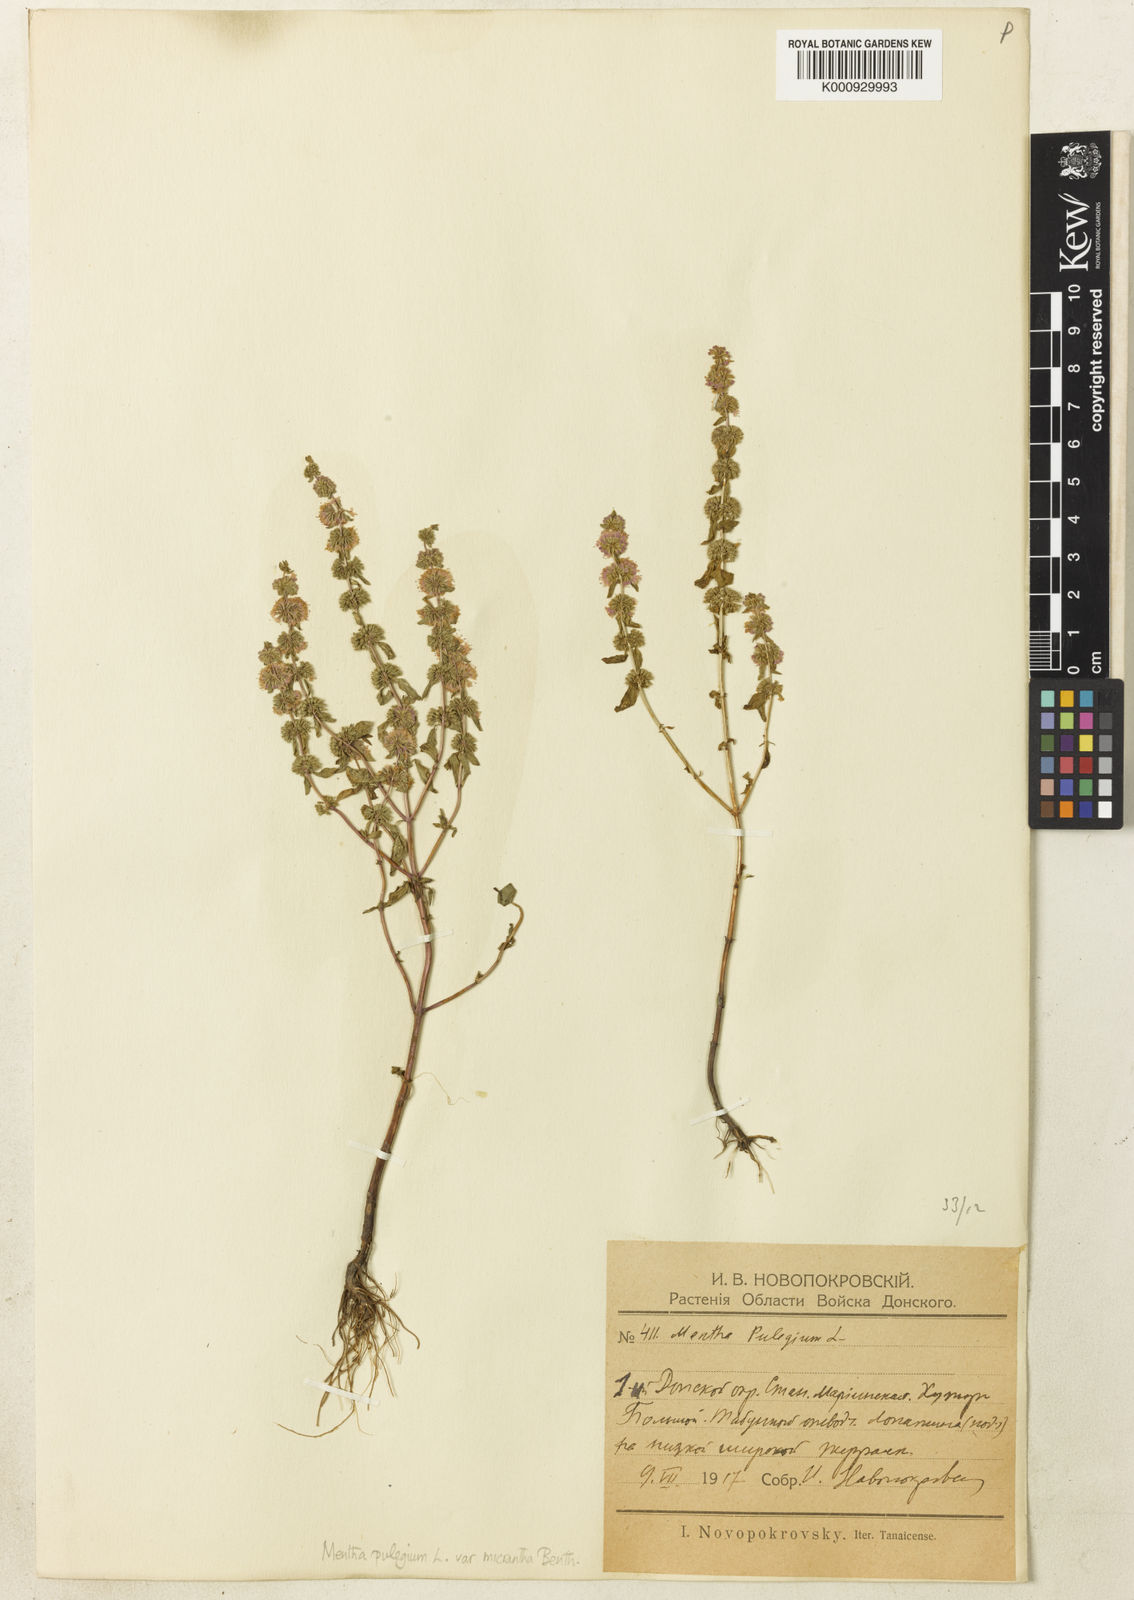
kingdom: Plantae
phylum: Tracheophyta
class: Magnoliopsida
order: Lamiales
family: Lamiaceae
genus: Mentha
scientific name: Mentha micrantha
